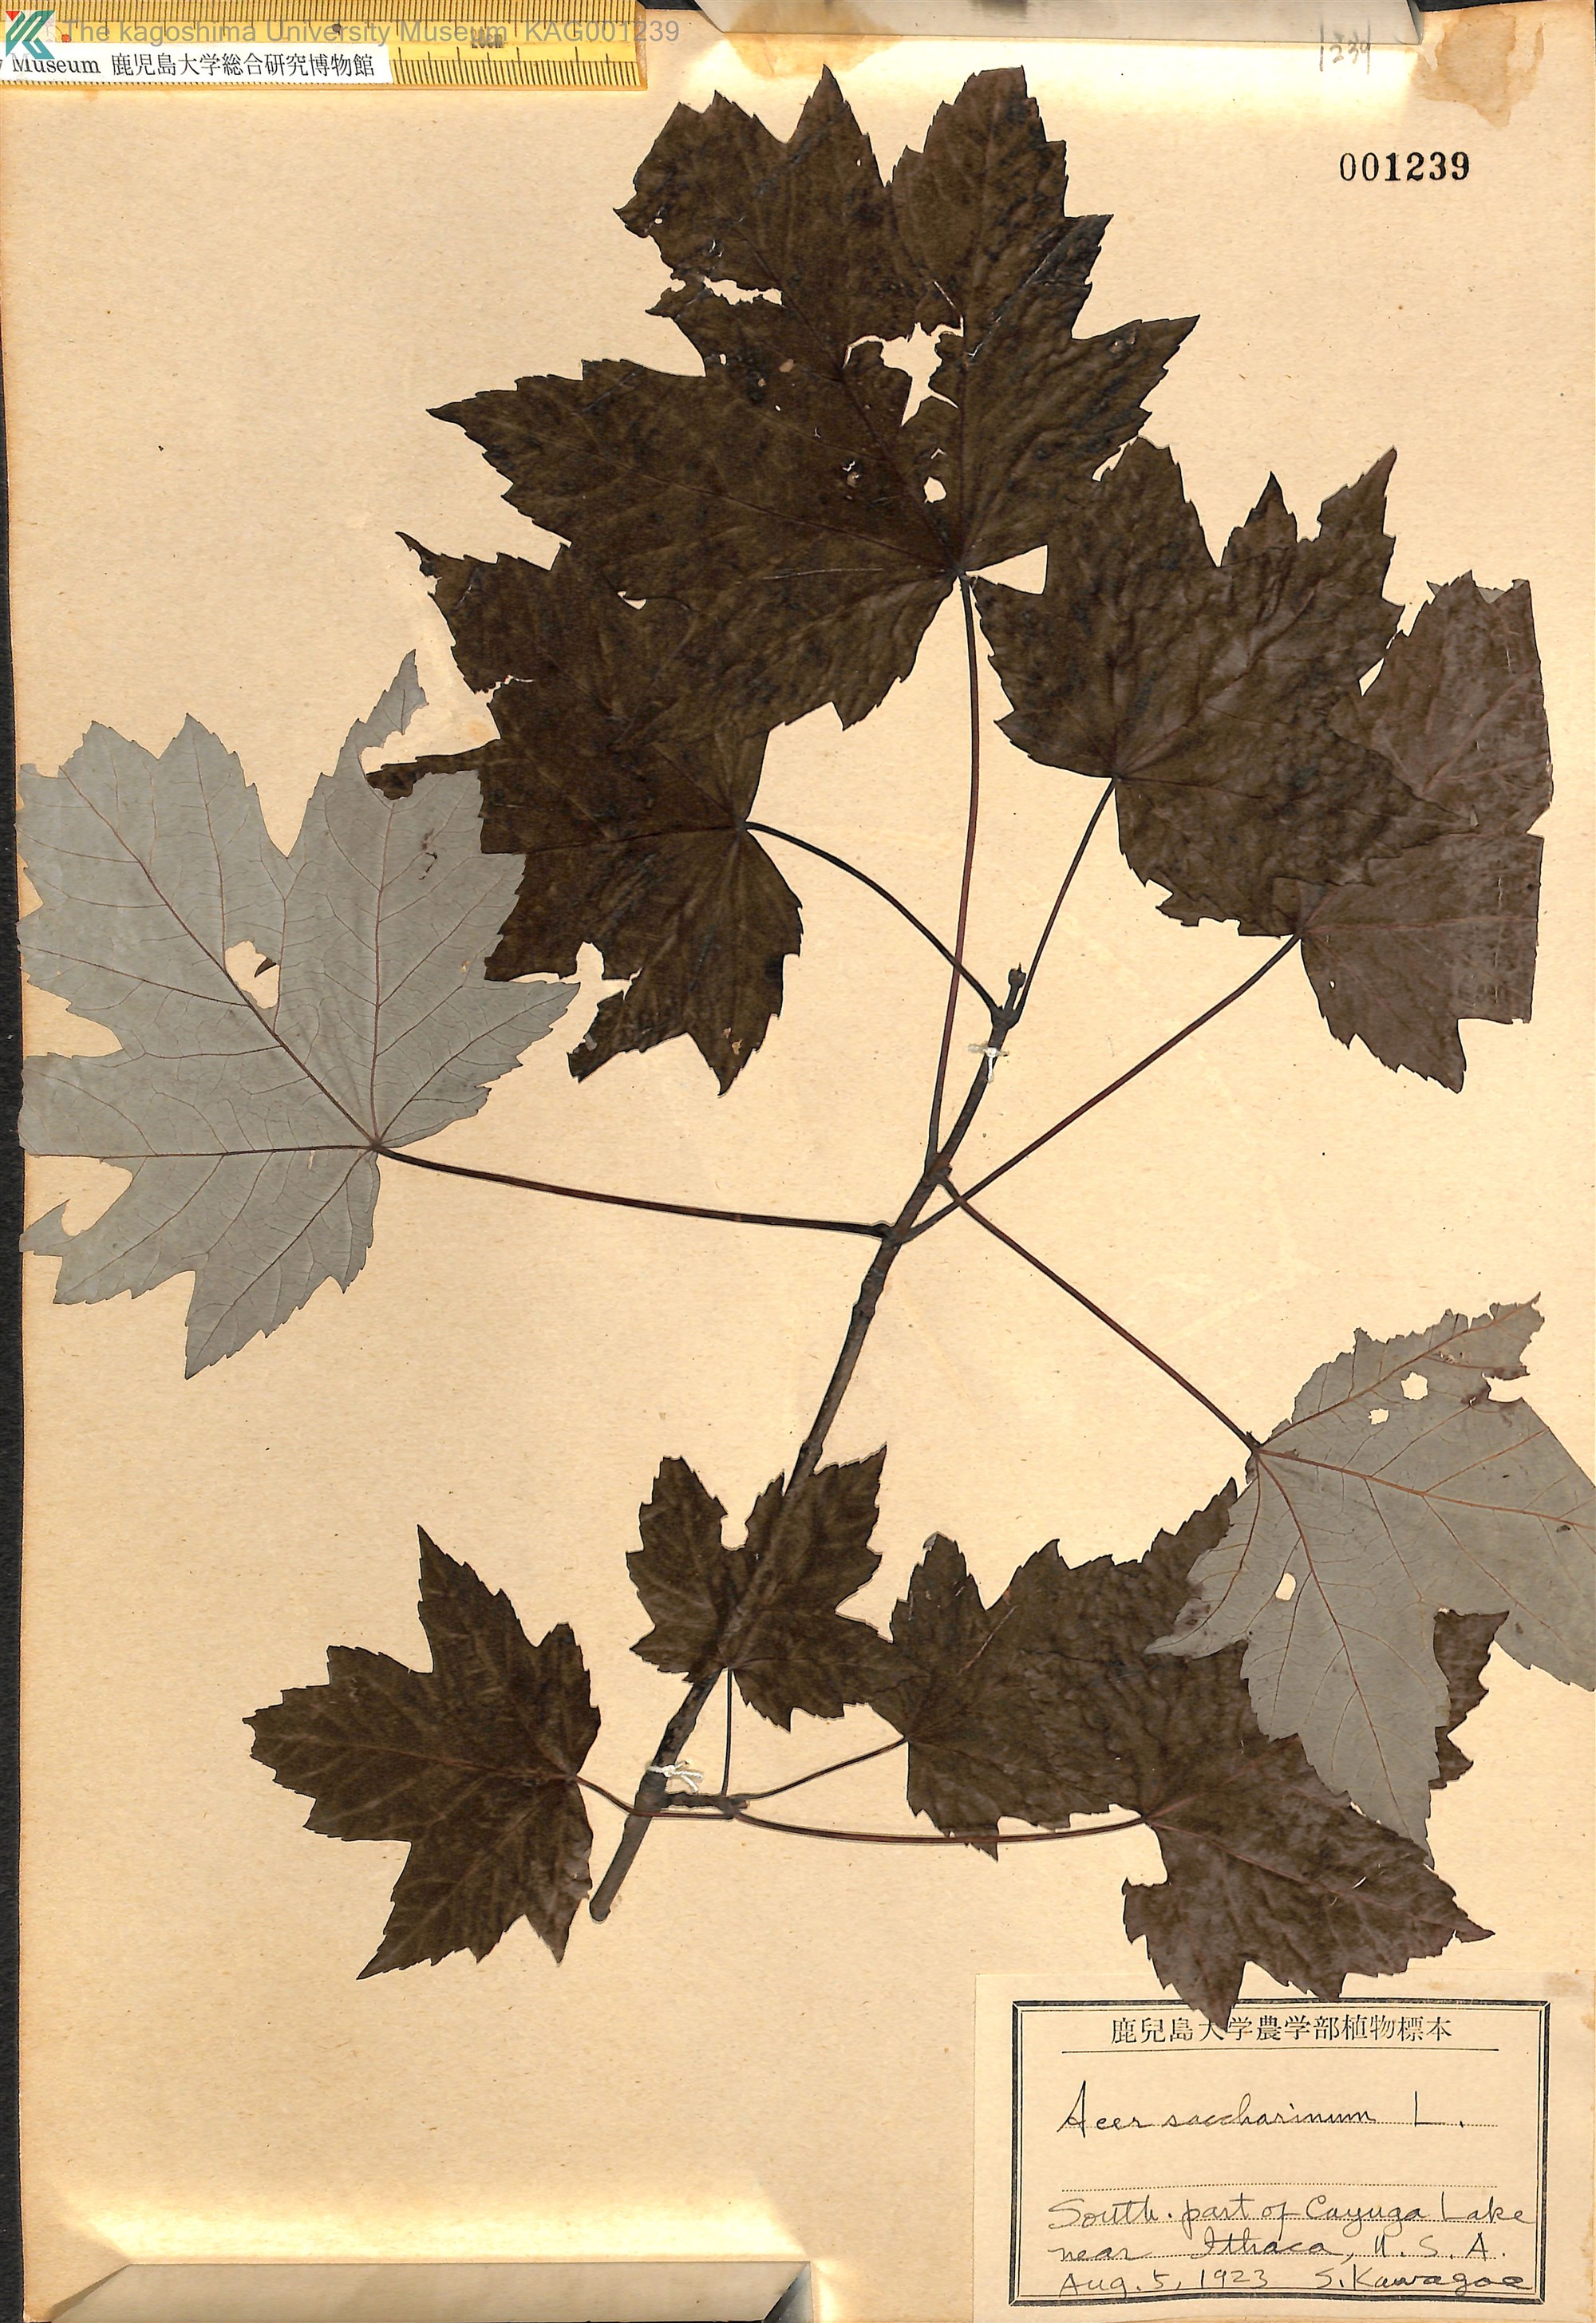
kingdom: Plantae
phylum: Tracheophyta
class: Magnoliopsida
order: Sapindales
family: Sapindaceae
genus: Acer
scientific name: Acer saccharinum
